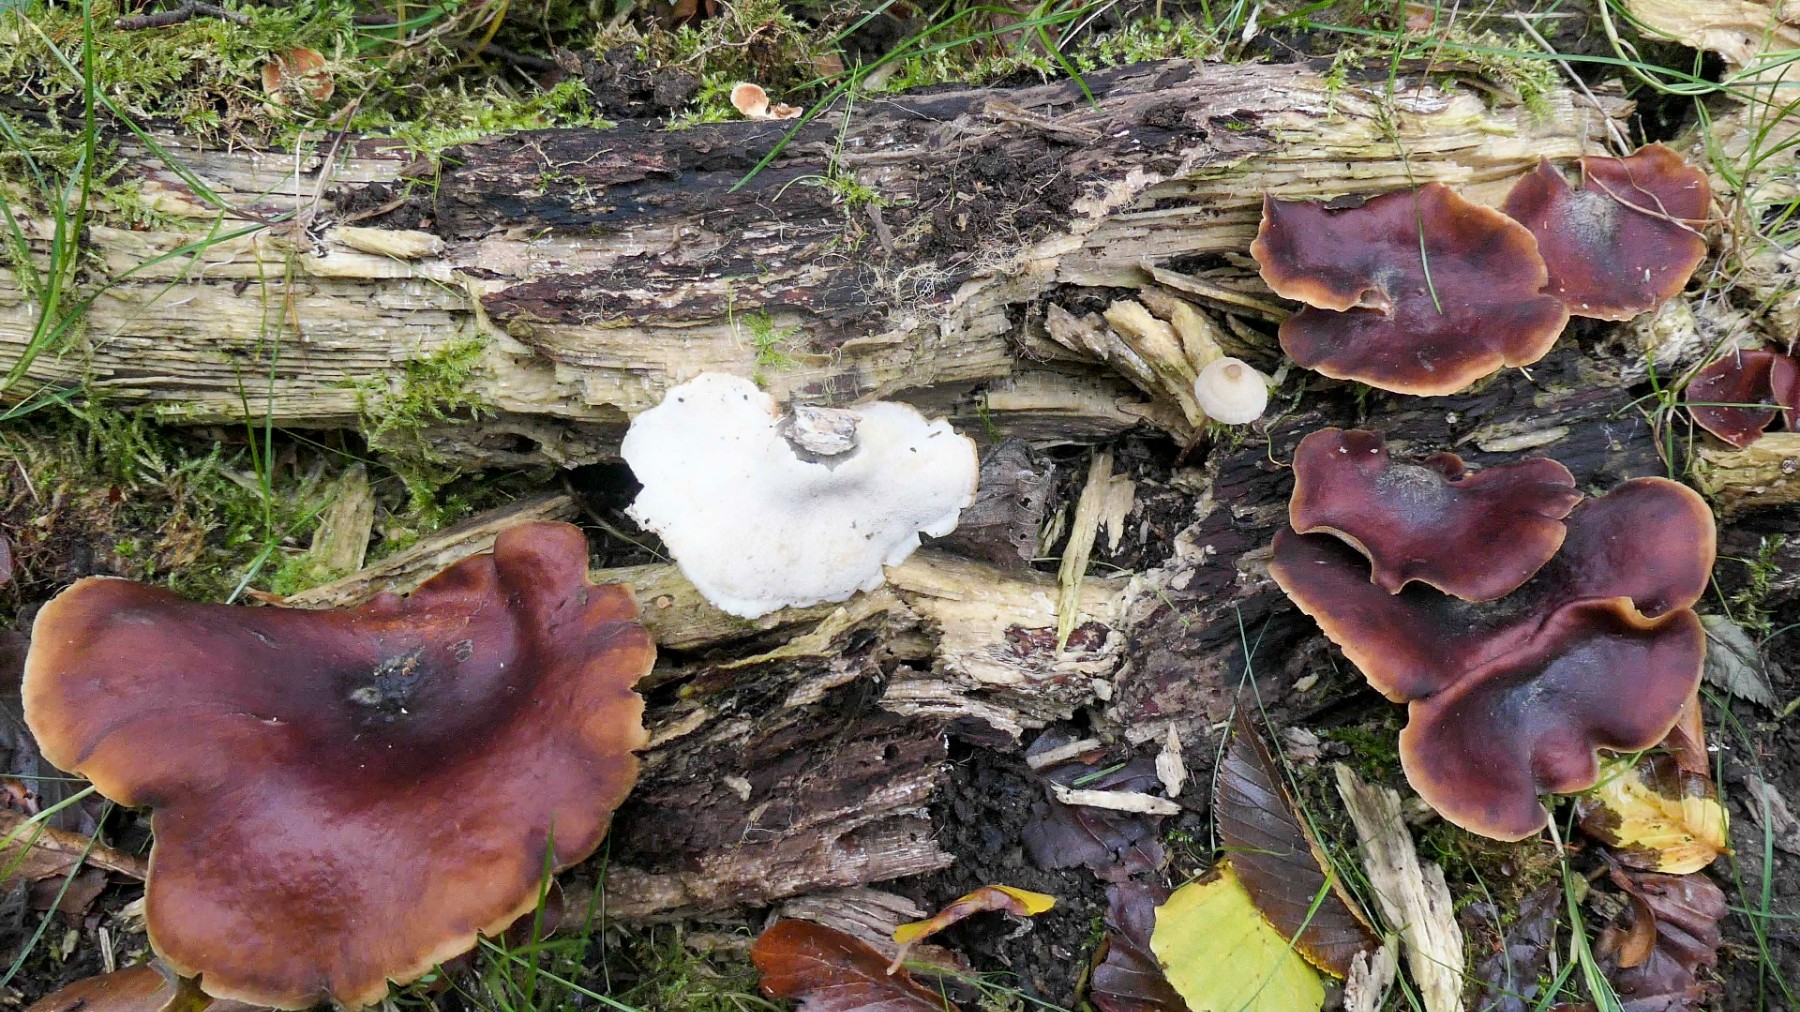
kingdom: Fungi
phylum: Basidiomycota
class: Agaricomycetes
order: Polyporales
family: Polyporaceae
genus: Picipes
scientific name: Picipes badius
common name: kastaniebrun stilkporesvamp
